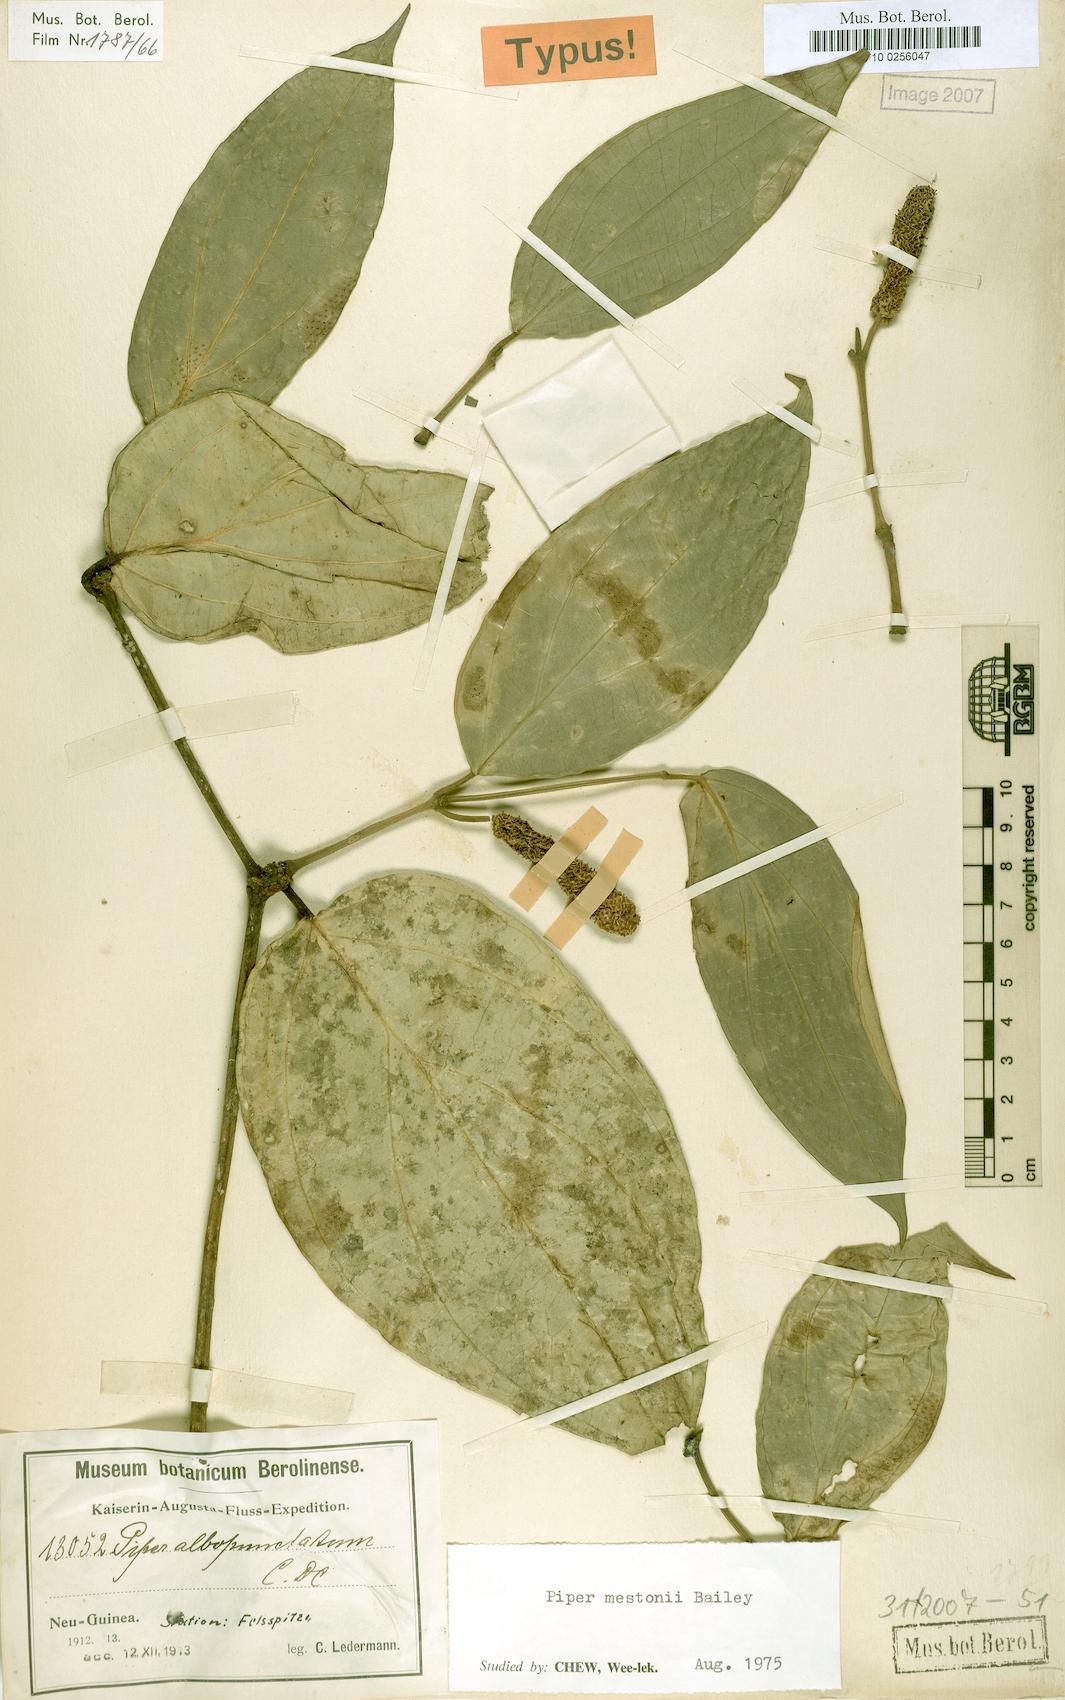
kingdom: Plantae
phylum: Tracheophyta
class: Magnoliopsida
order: Piperales
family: Piperaceae
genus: Piper
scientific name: Piper mestonii
